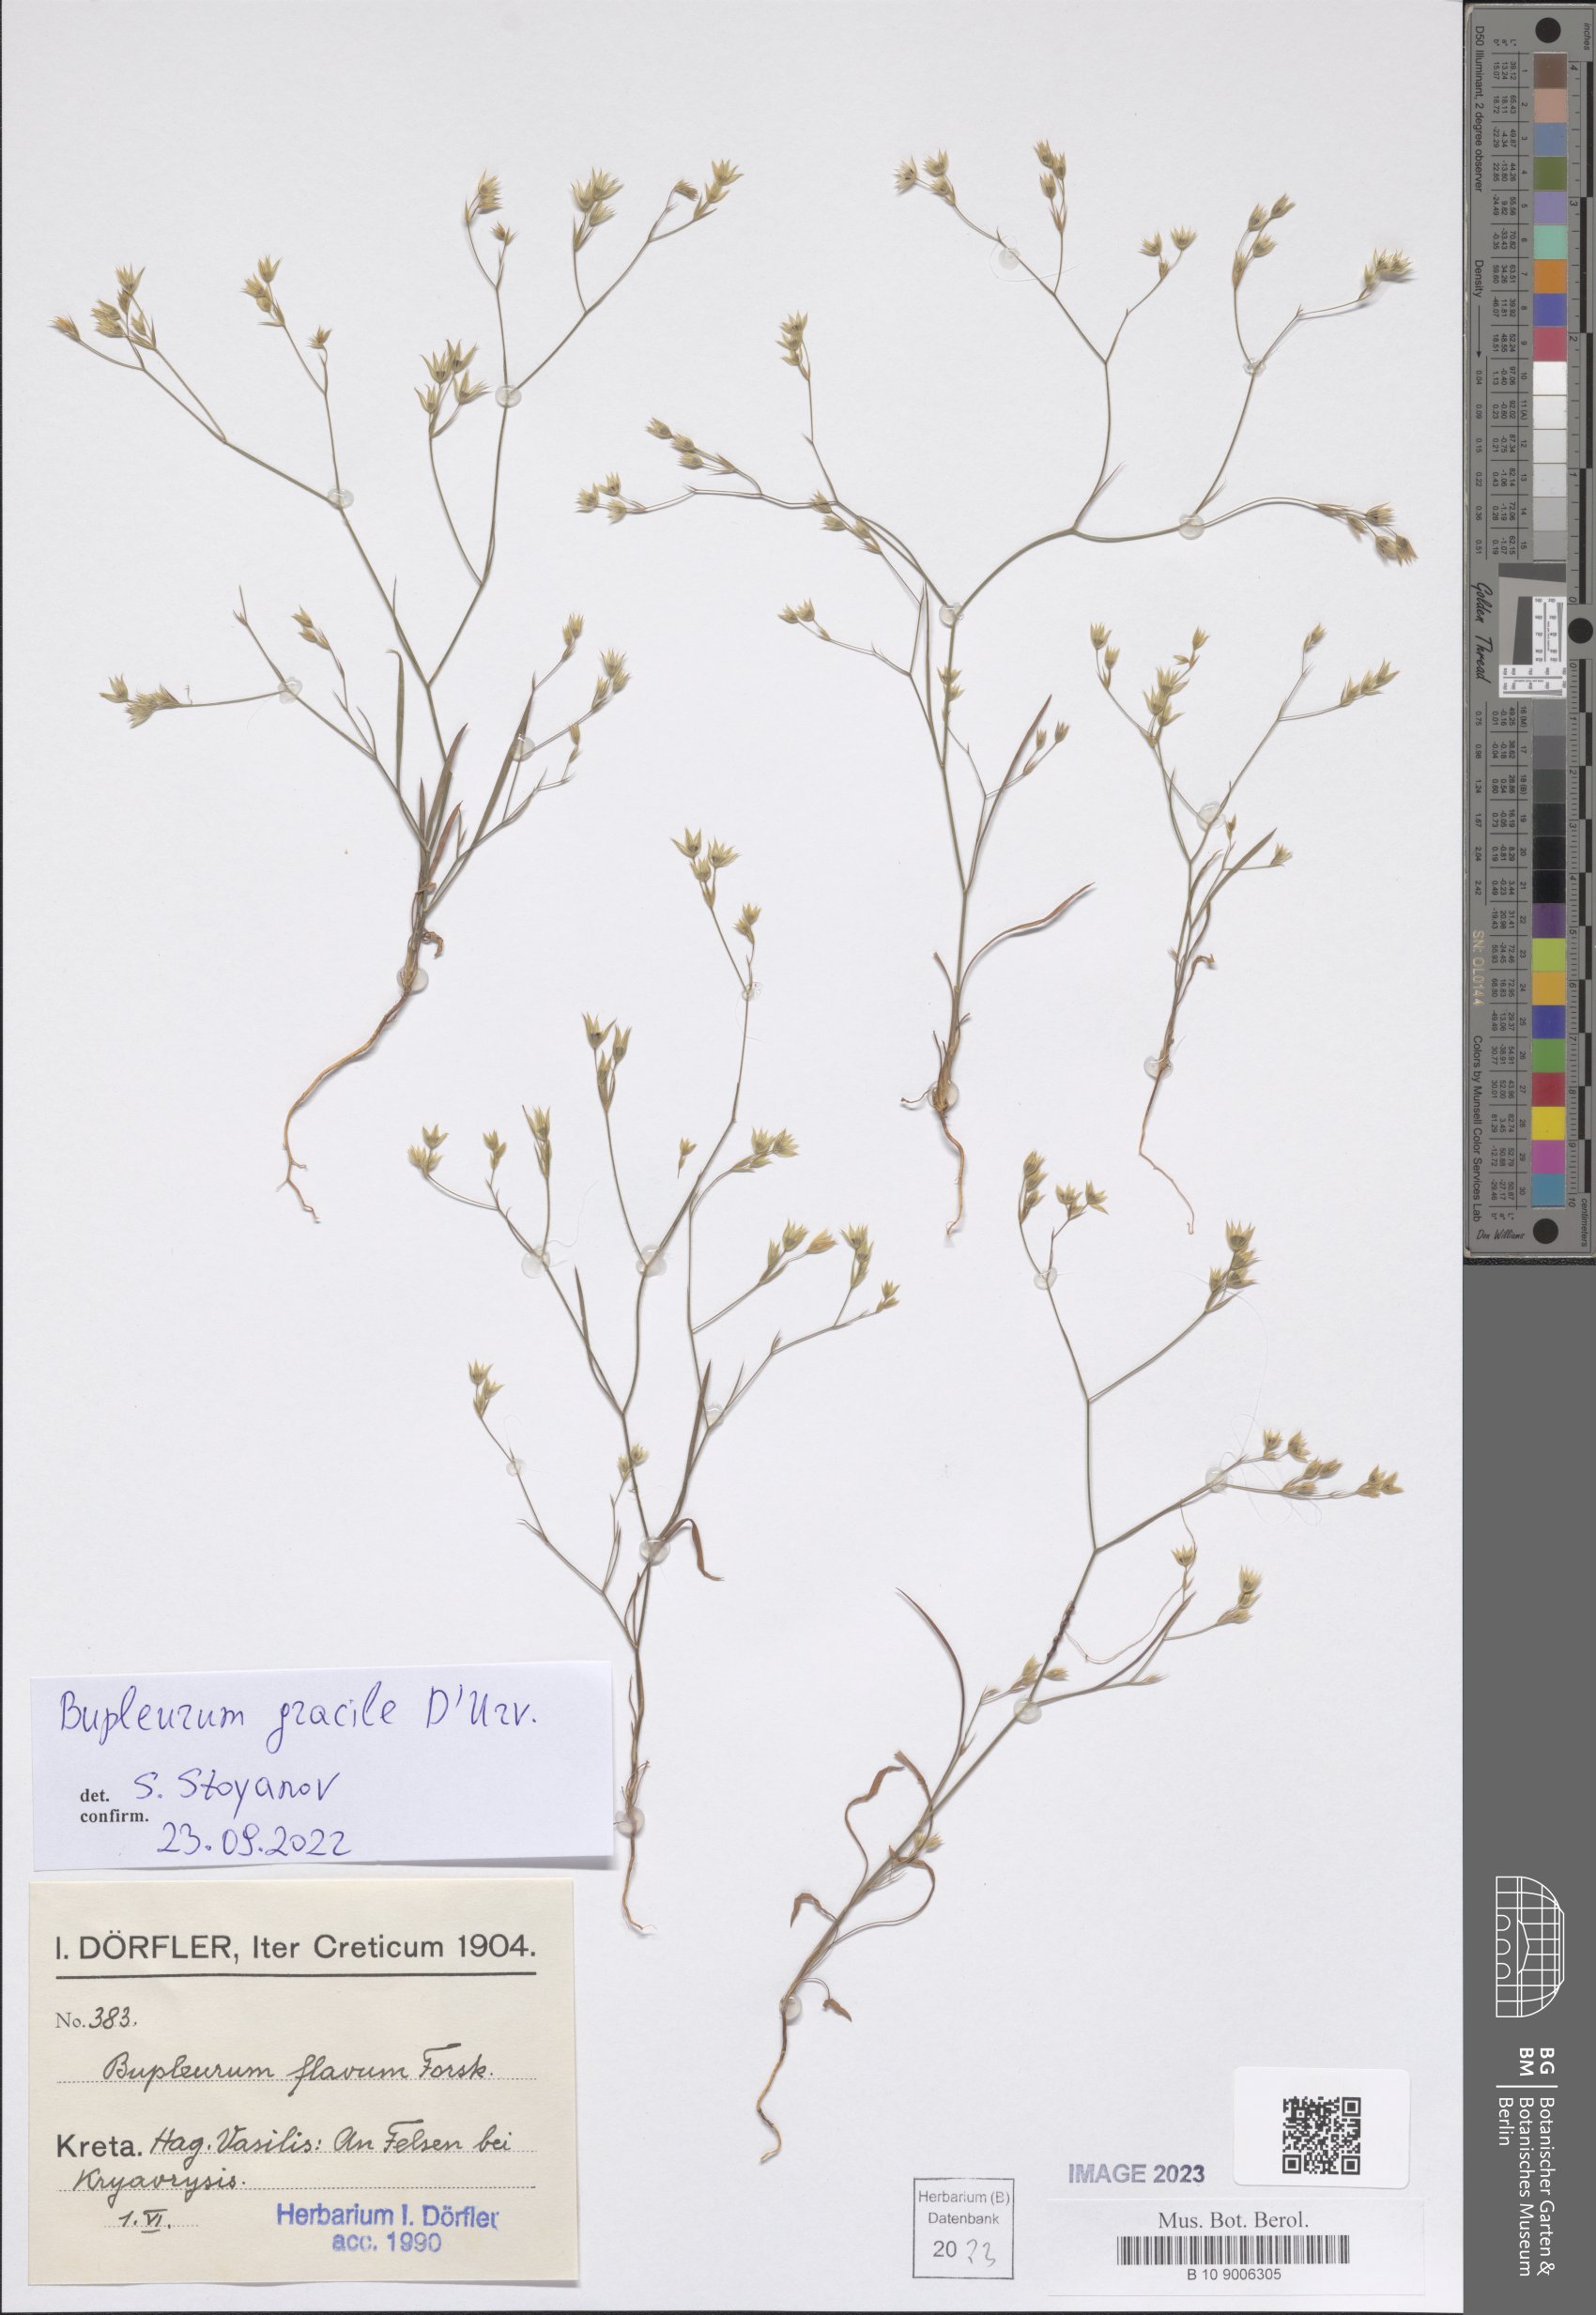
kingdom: Plantae
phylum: Tracheophyta
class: Magnoliopsida
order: Apiales
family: Apiaceae
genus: Bupleurum
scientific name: Bupleurum gracile
